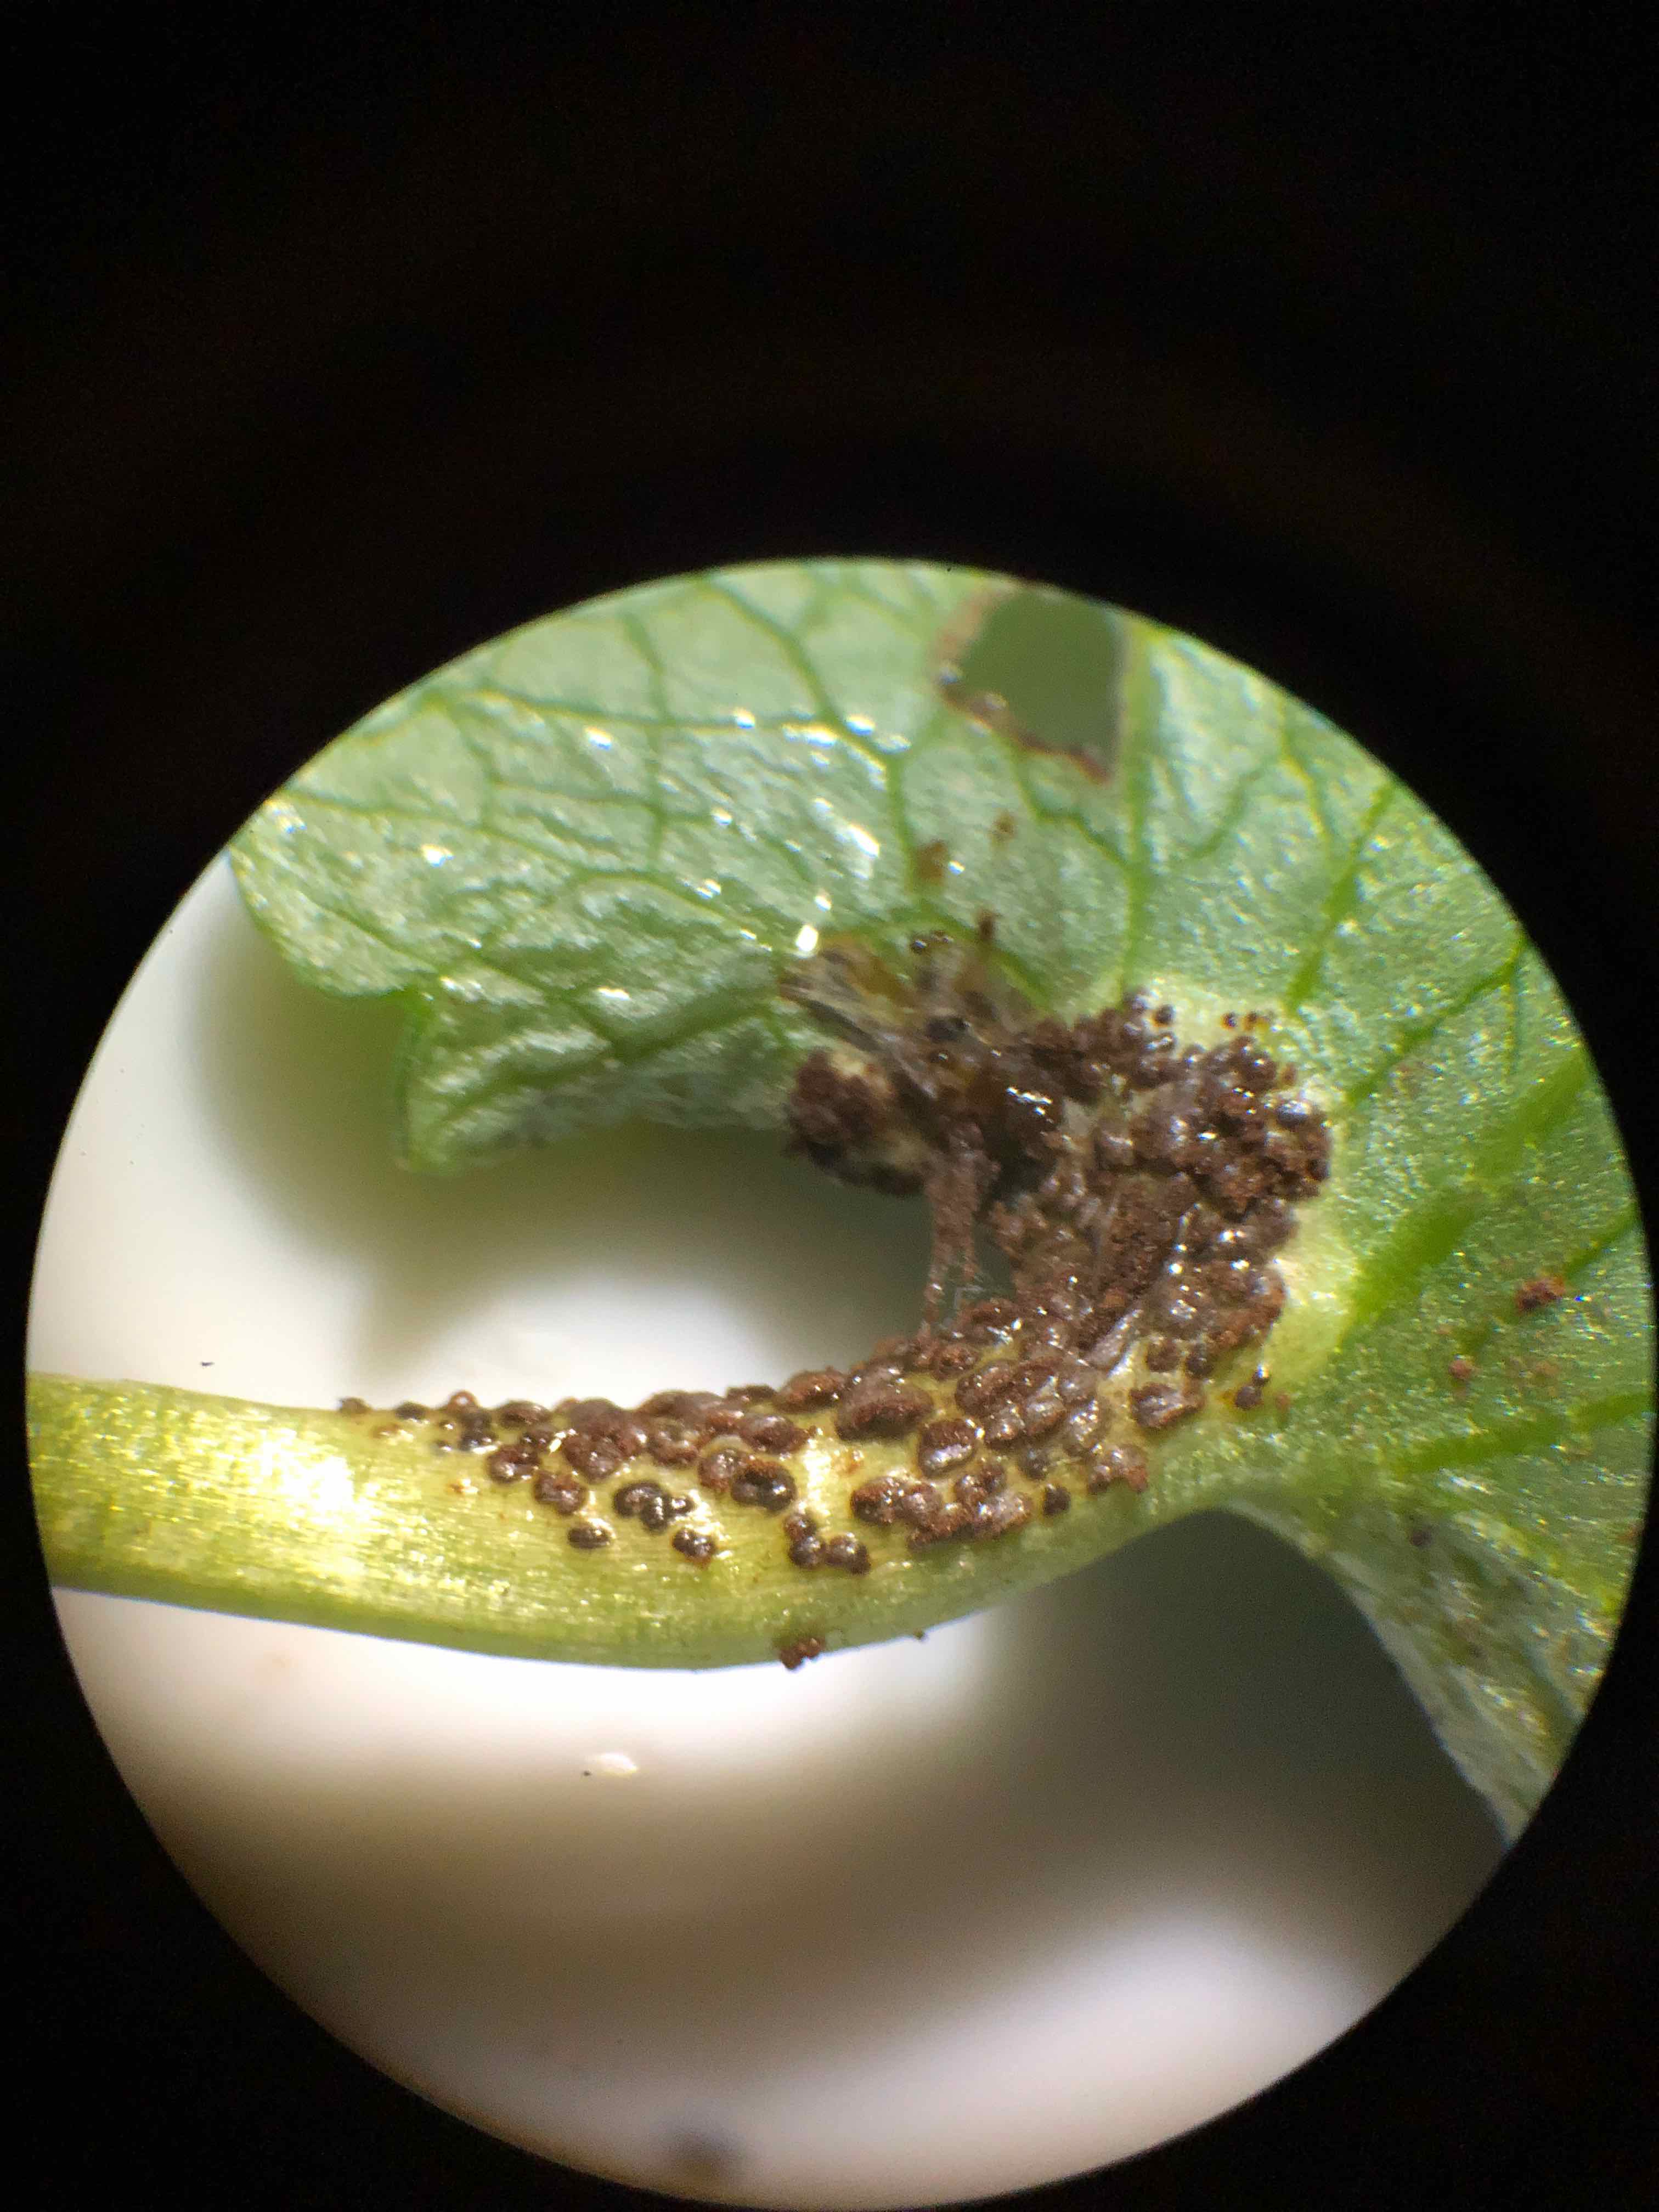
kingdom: Fungi
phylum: Basidiomycota
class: Pucciniomycetes
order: Pucciniales
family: Pucciniaceae
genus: Uromyces
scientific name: Uromyces ficariae
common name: vorterod-encellerust
